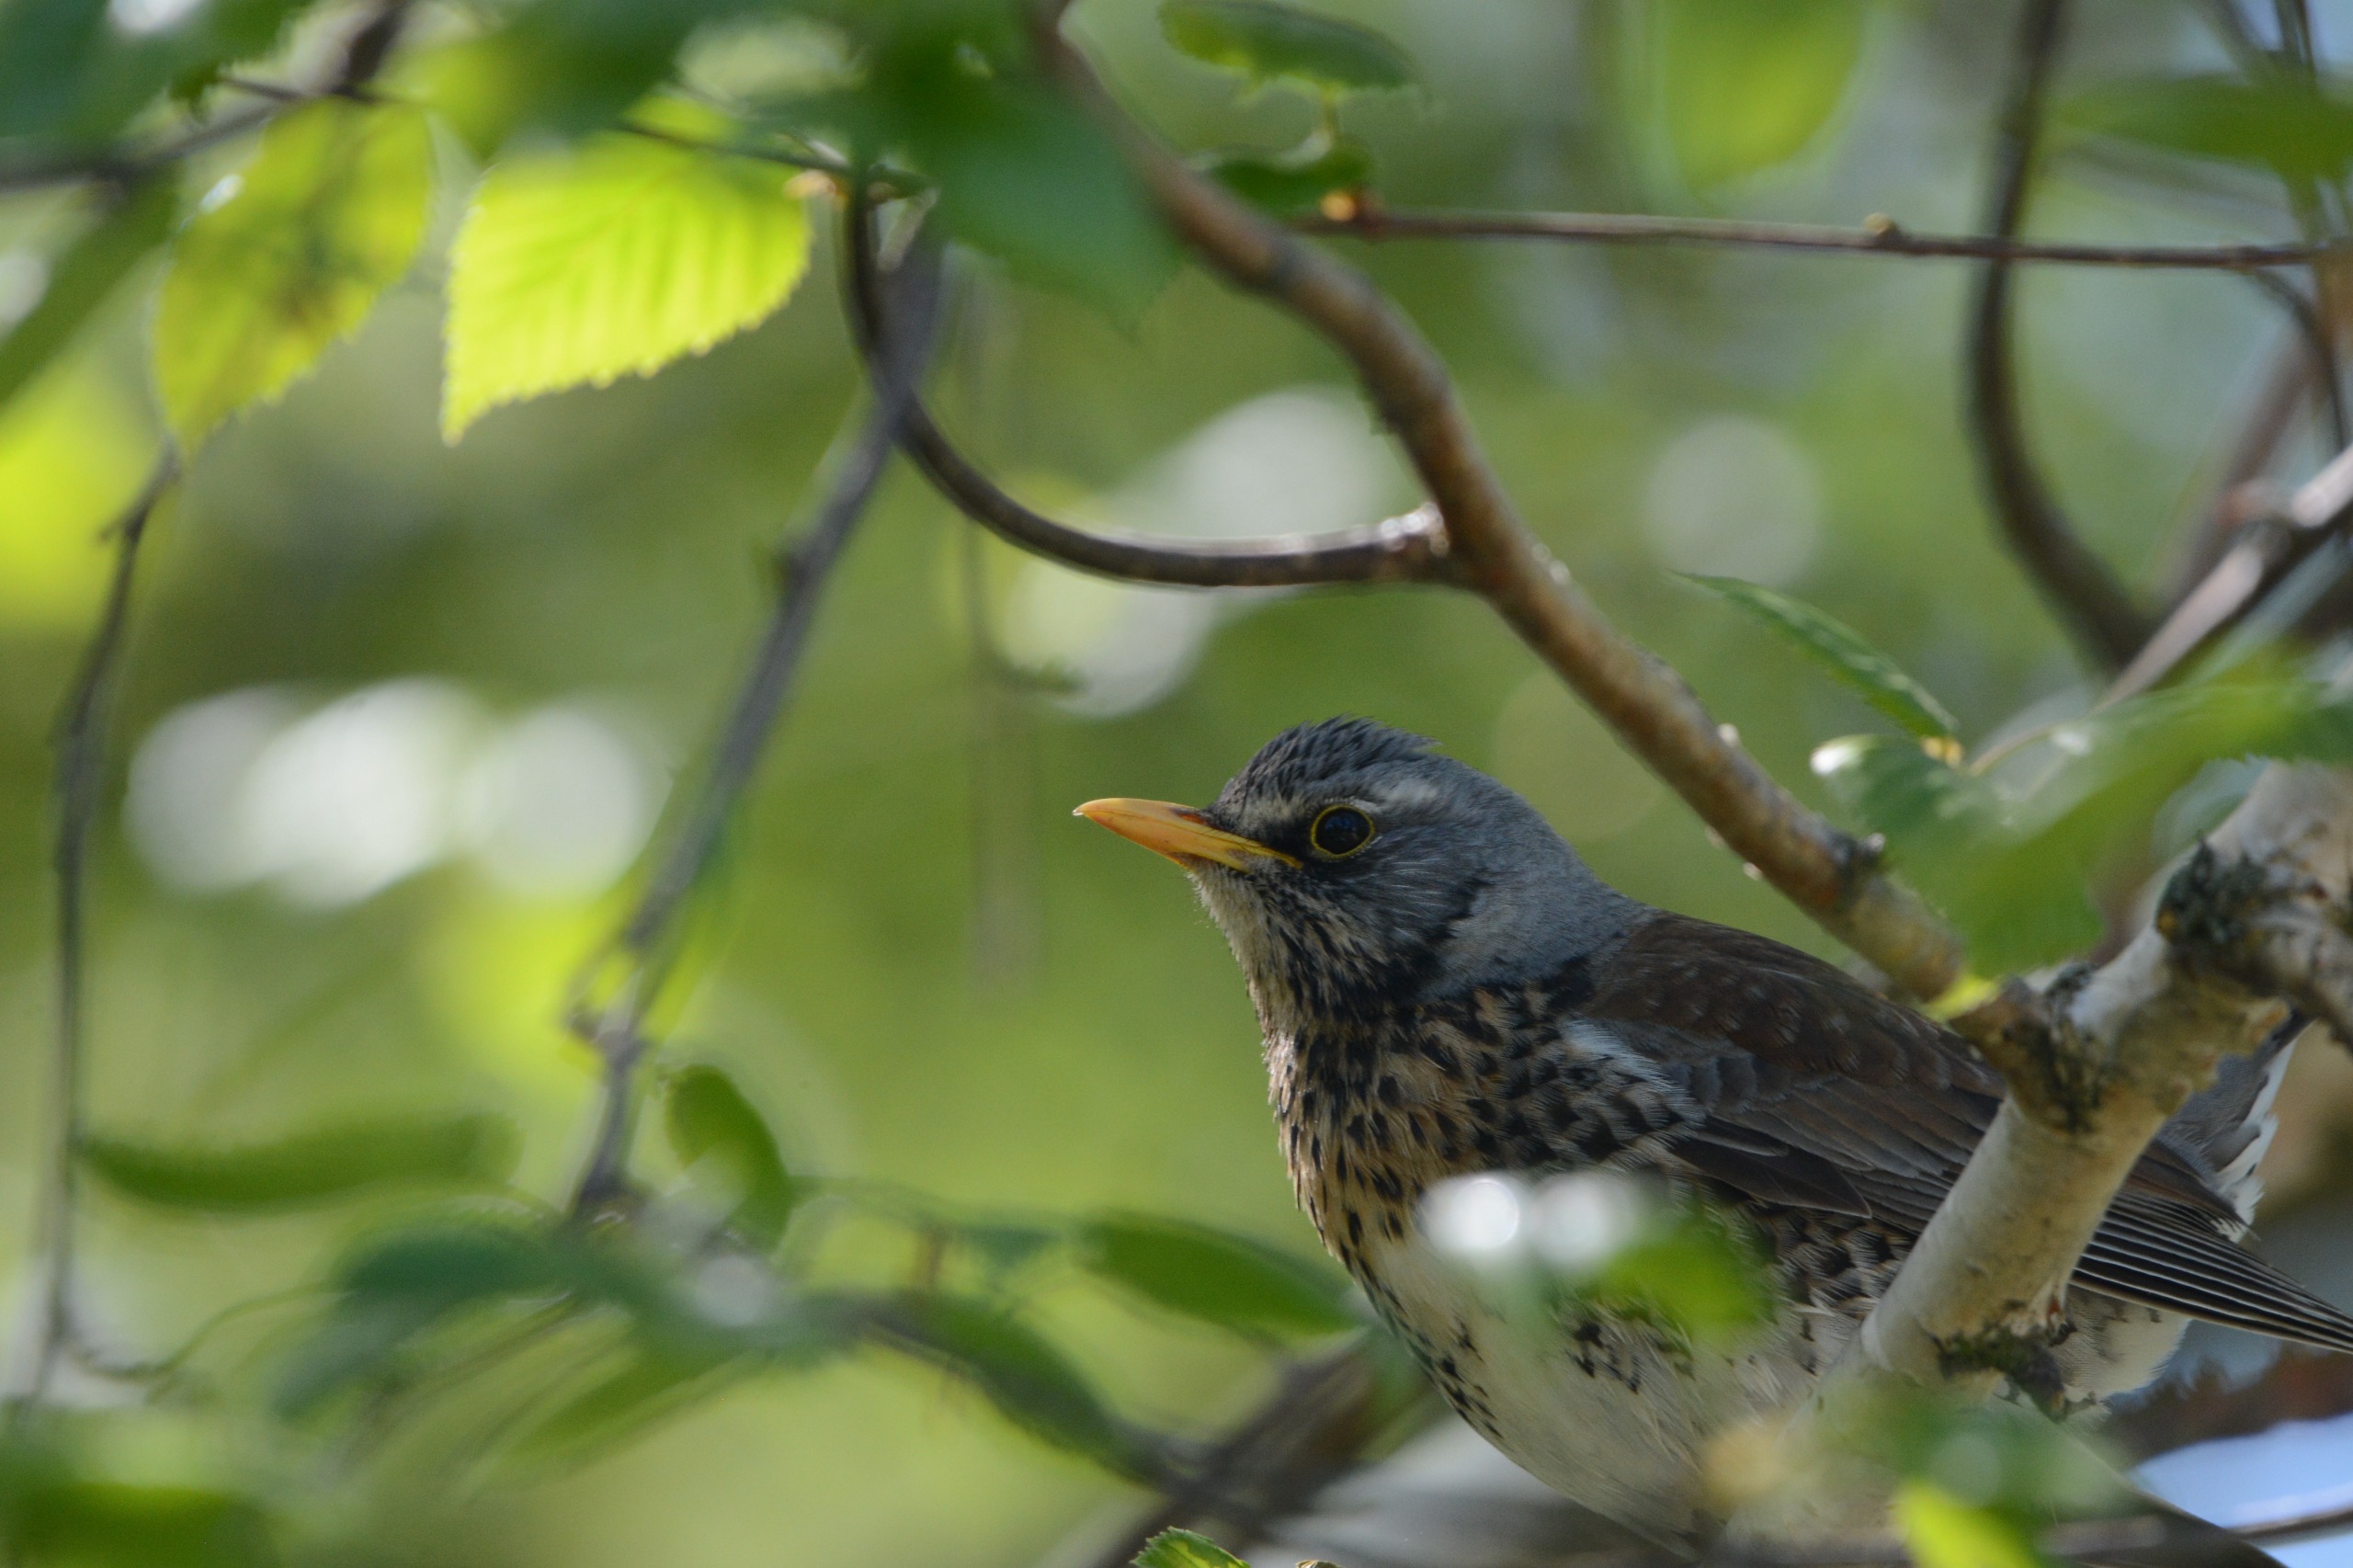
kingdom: Animalia
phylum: Chordata
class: Aves
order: Passeriformes
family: Turdidae
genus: Turdus
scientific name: Turdus pilaris
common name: Sjagger
